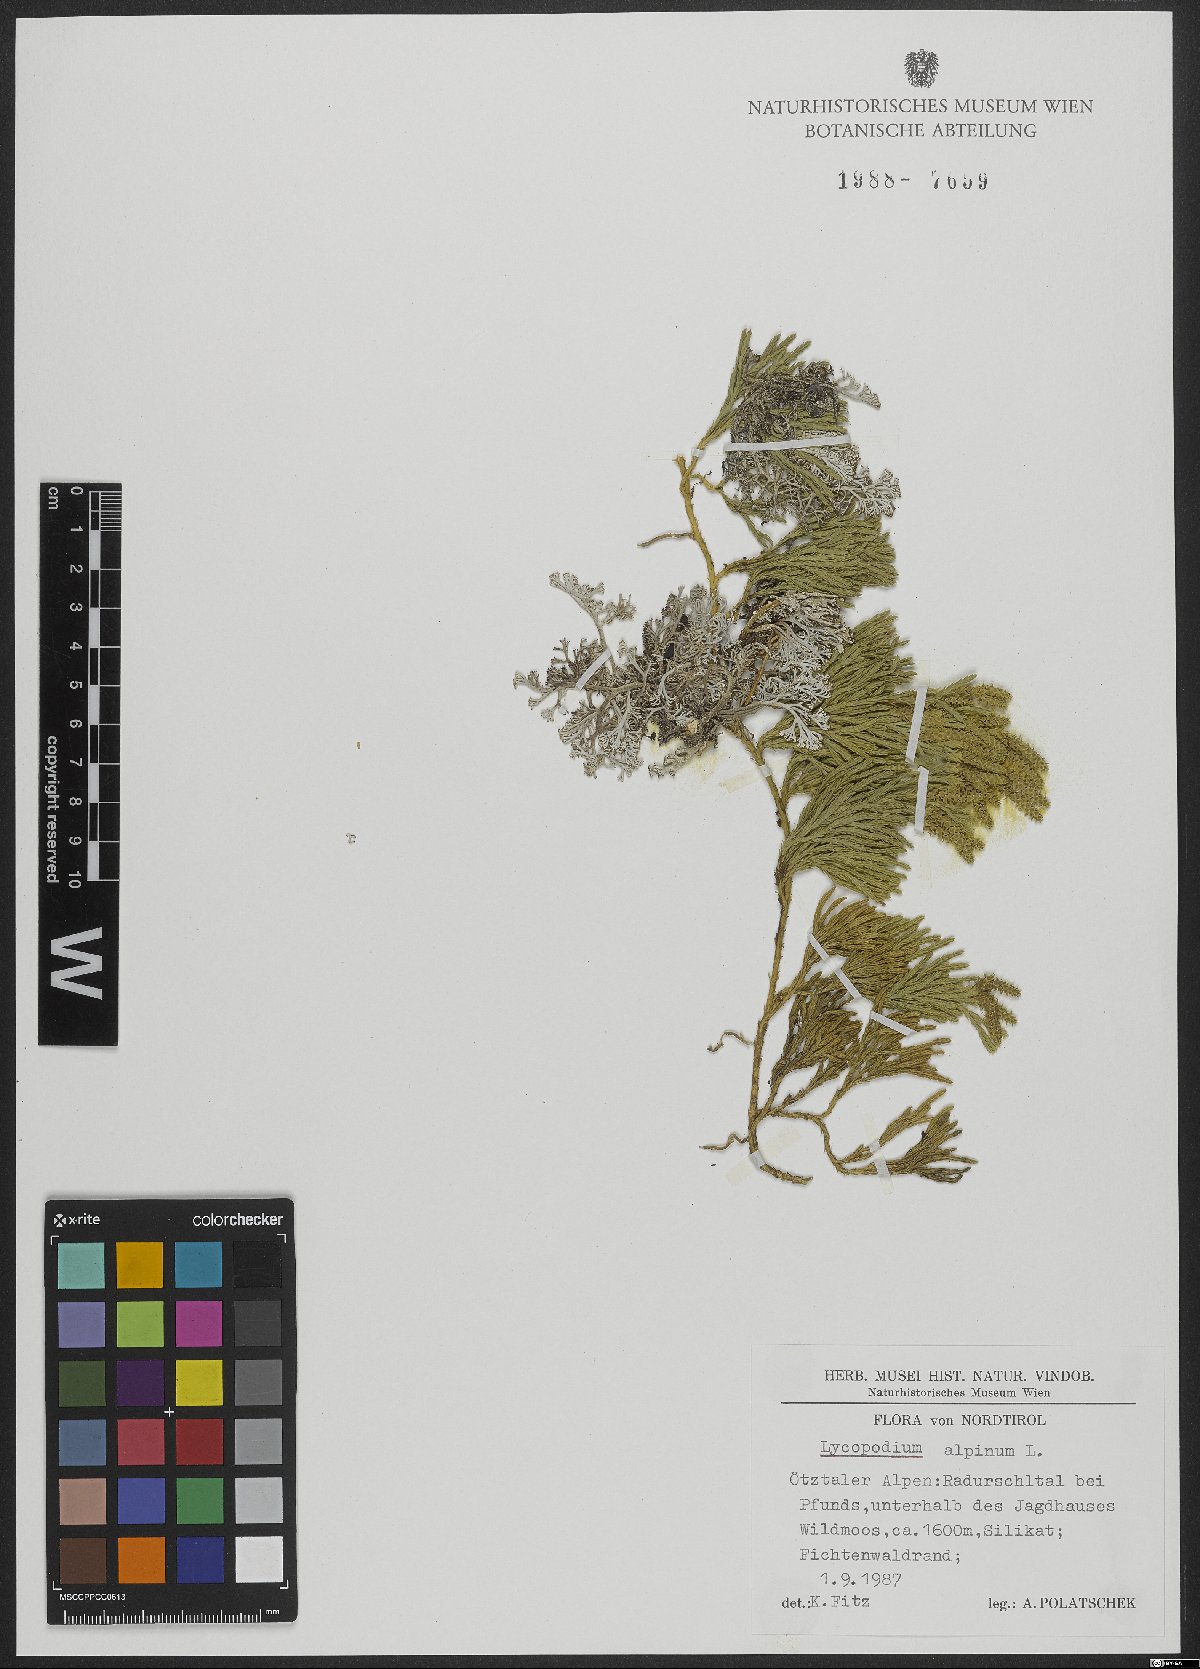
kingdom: Plantae
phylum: Tracheophyta
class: Lycopodiopsida
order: Lycopodiales
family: Lycopodiaceae
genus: Diphasiastrum
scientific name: Diphasiastrum alpinum
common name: Alpine clubmoss
